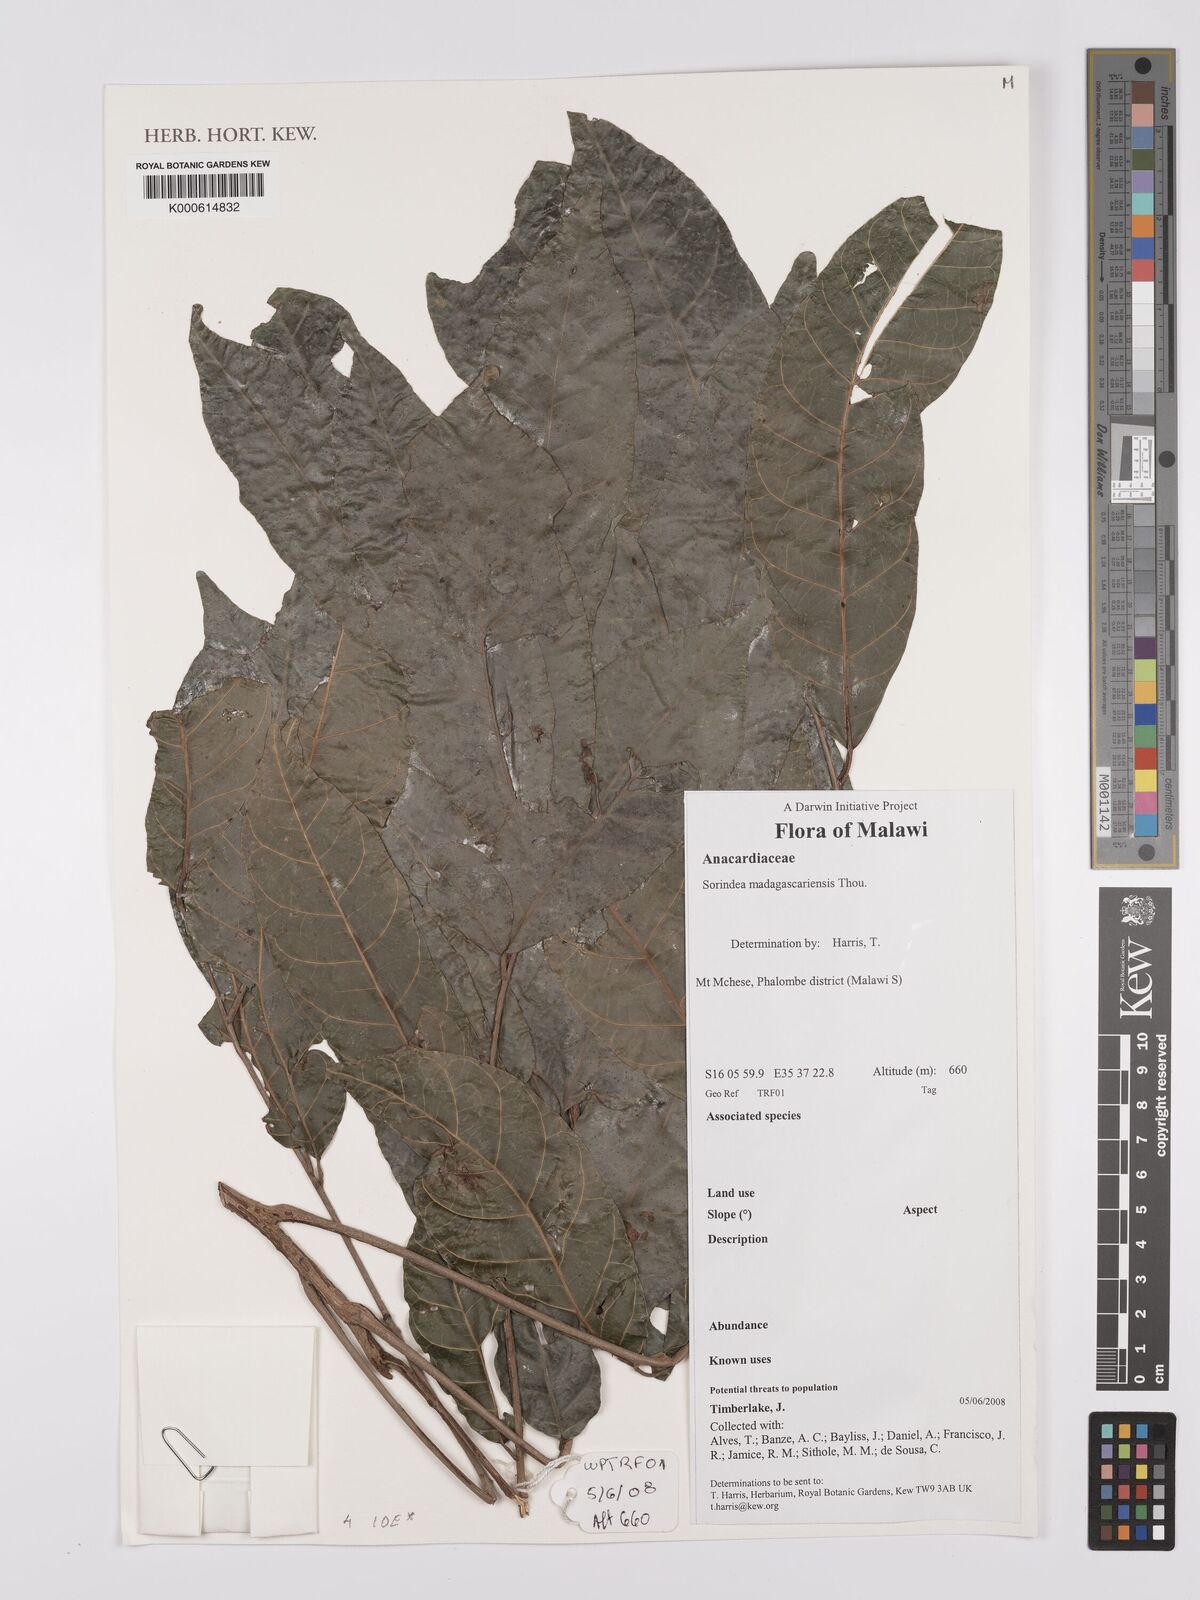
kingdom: Plantae
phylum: Tracheophyta
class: Magnoliopsida
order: Sapindales
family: Anacardiaceae
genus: Sorindeia
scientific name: Sorindeia
